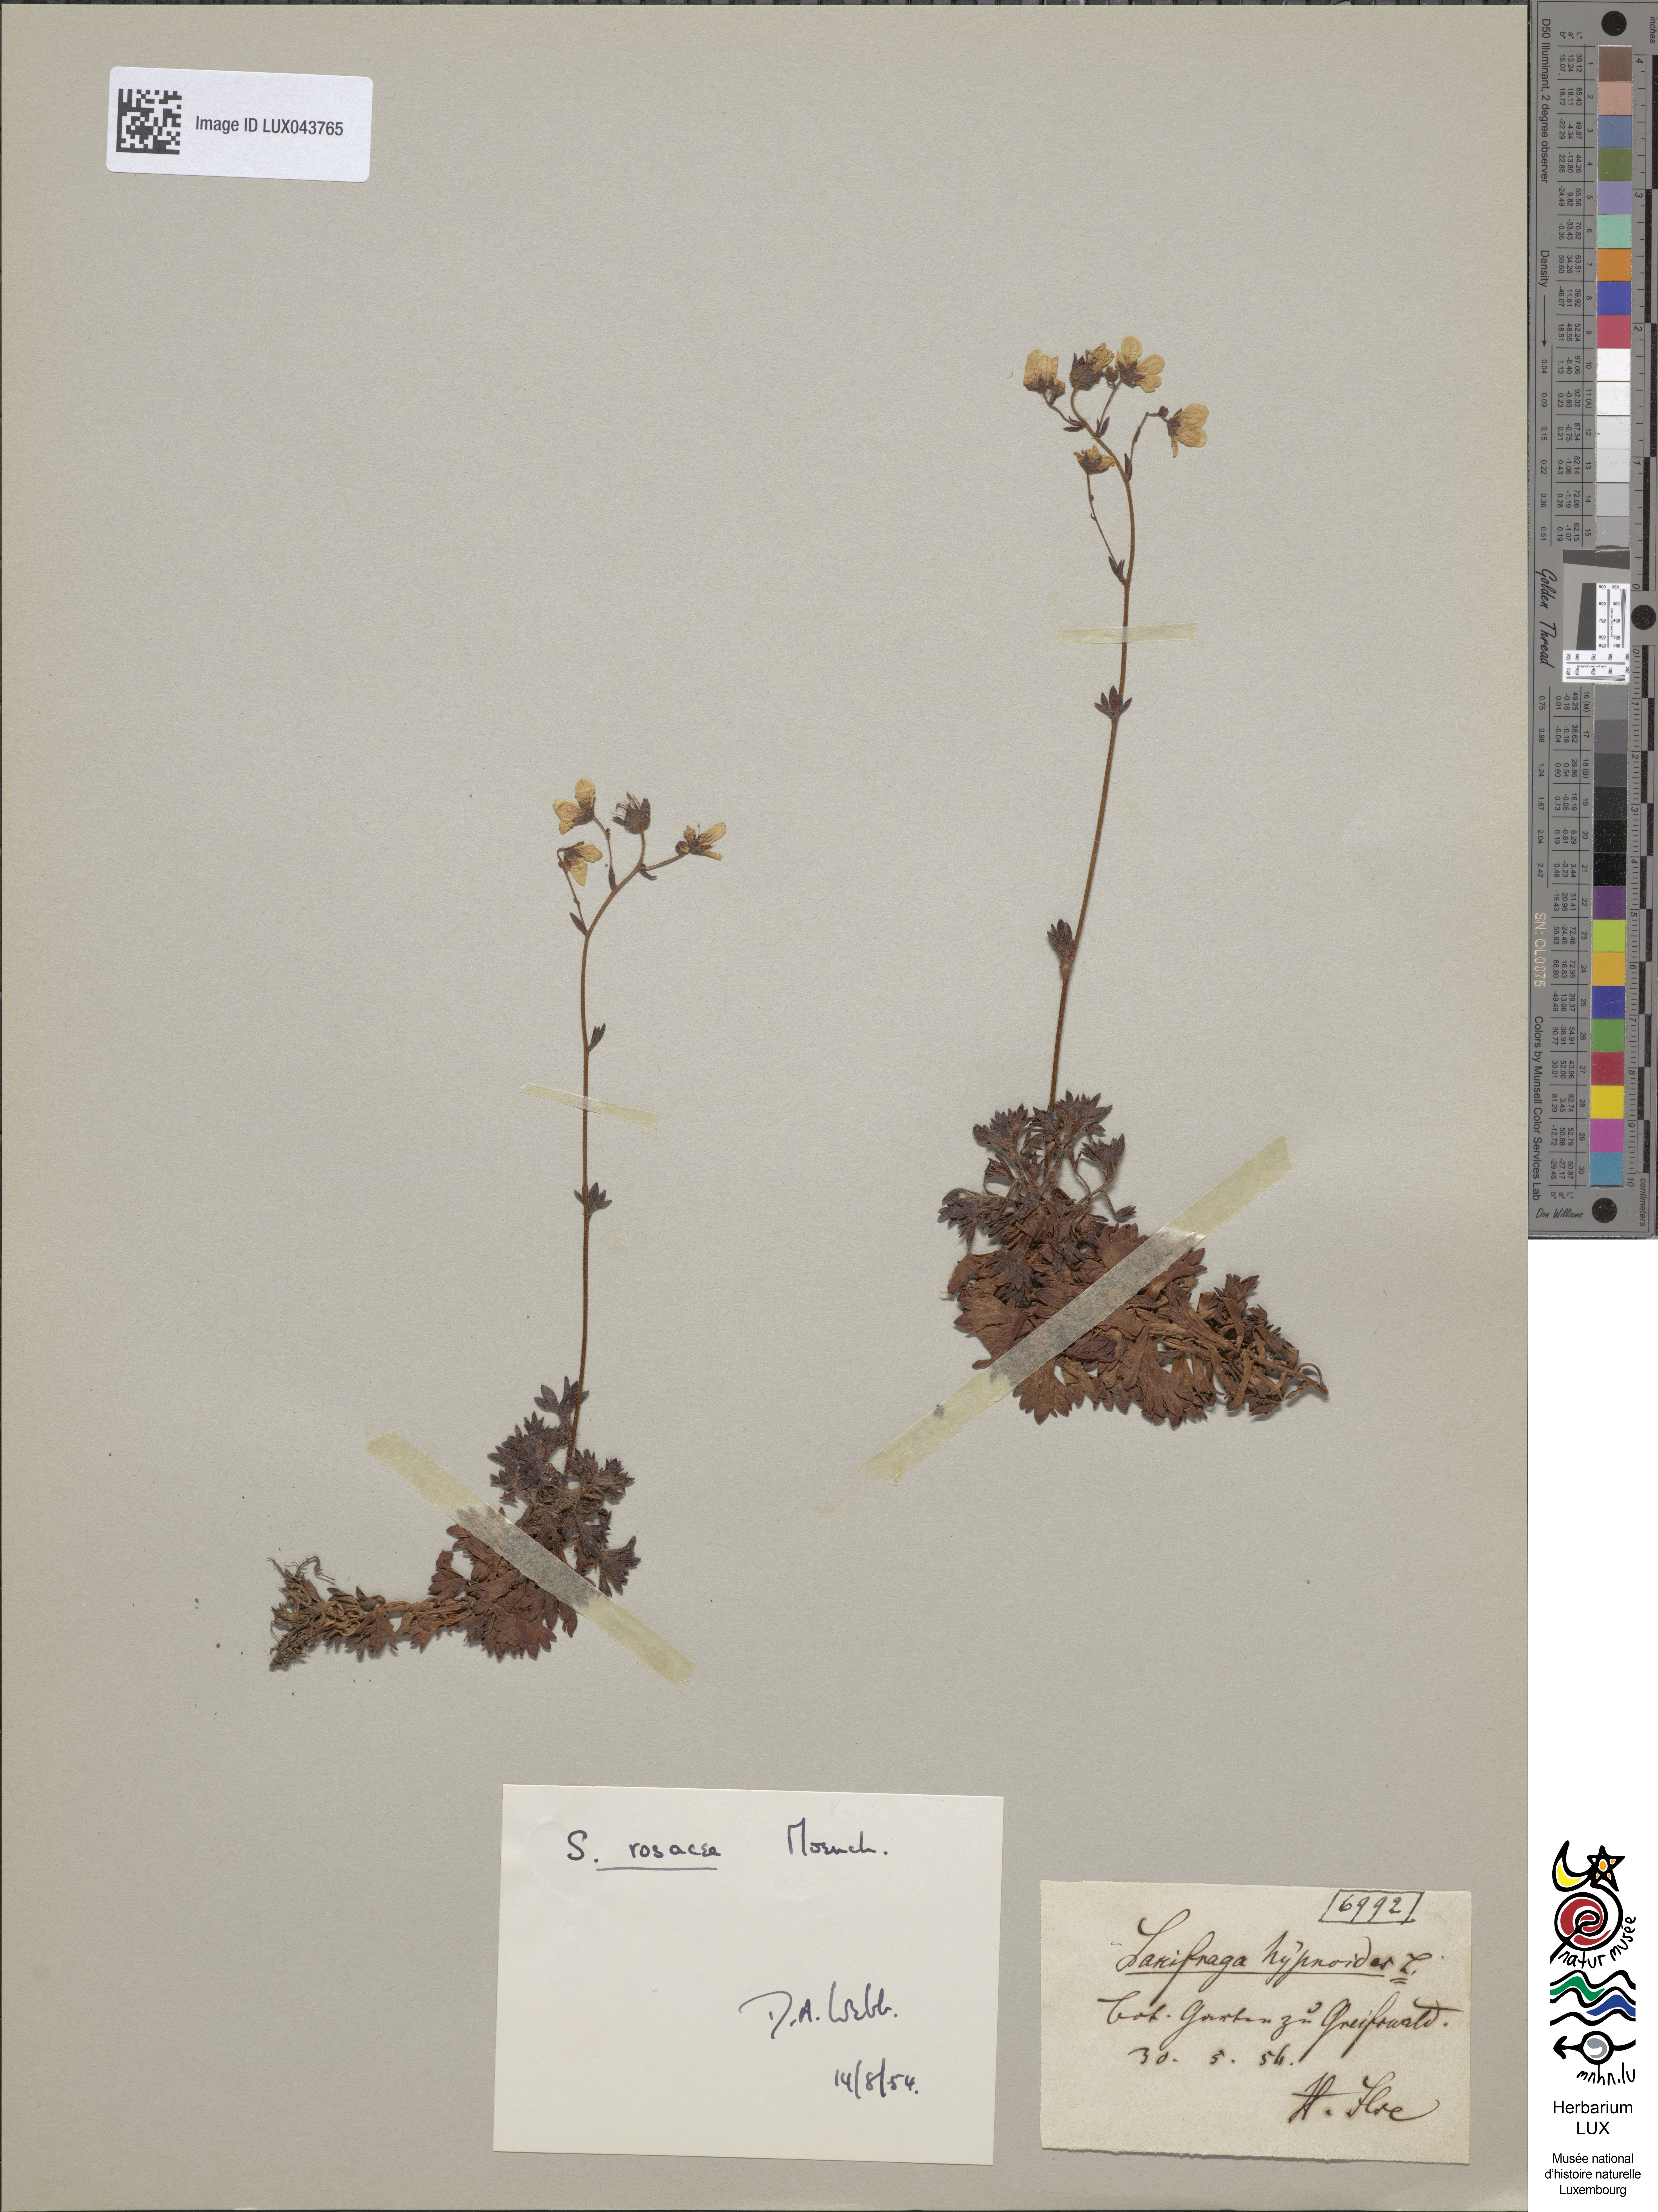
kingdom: Plantae
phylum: Tracheophyta
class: Magnoliopsida
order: Saxifragales
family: Saxifragaceae
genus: Saxifraga
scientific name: Saxifraga hypnoides
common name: Mossy saxifrage
